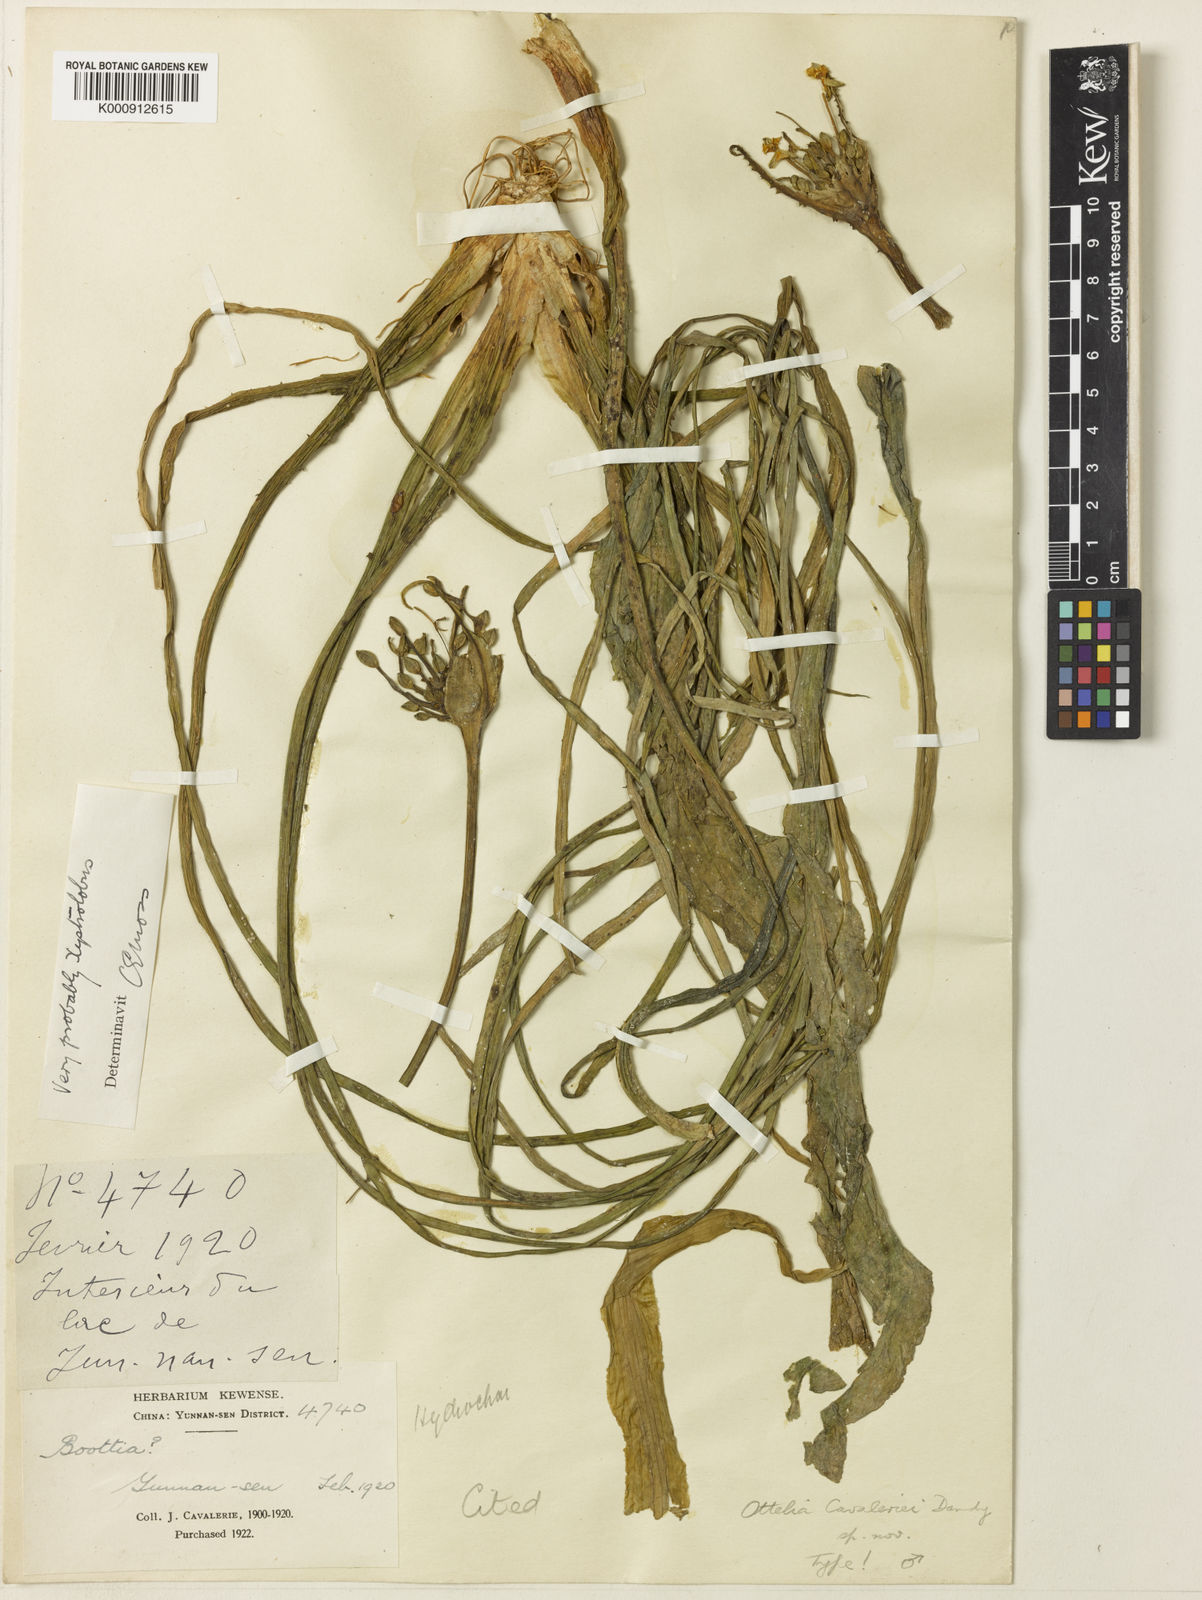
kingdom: Plantae
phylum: Tracheophyta
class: Liliopsida
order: Alismatales
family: Hydrocharitaceae
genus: Ottelia
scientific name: Ottelia acuminata
